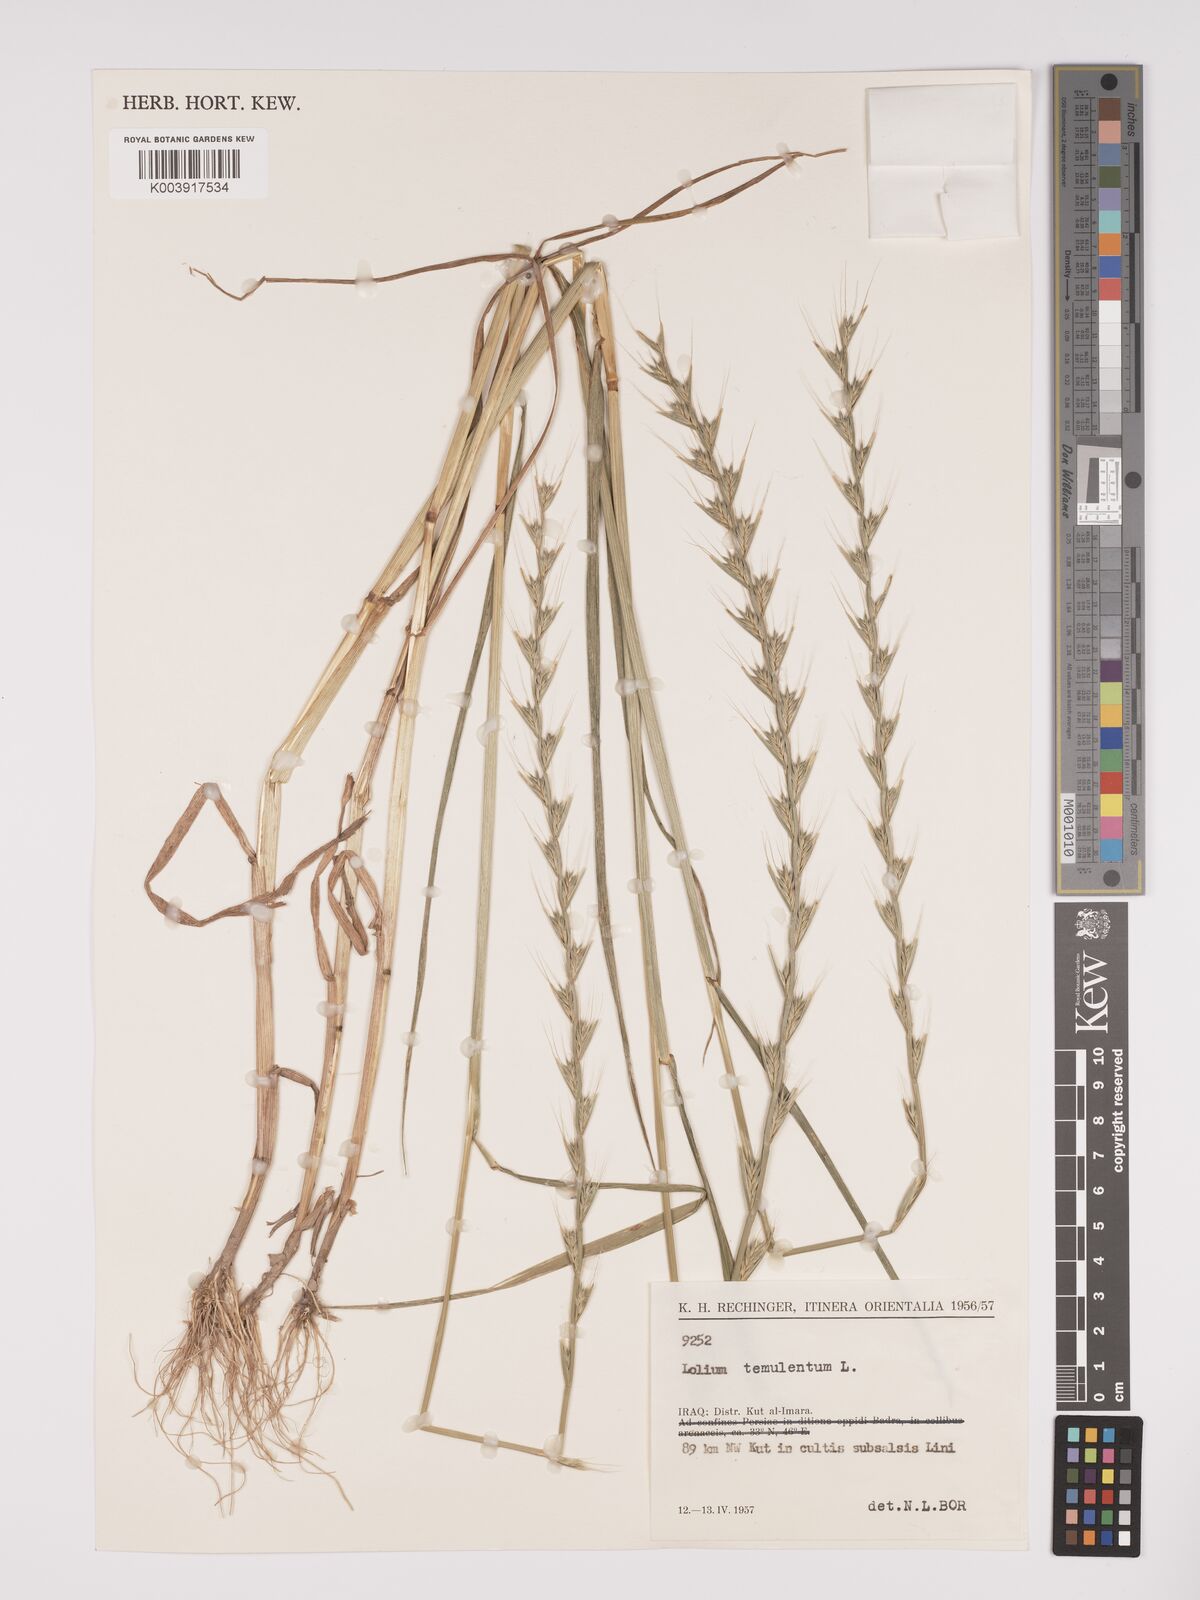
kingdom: Plantae
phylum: Tracheophyta
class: Liliopsida
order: Poales
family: Poaceae
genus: Lolium
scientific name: Lolium temulentum
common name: Darnel
